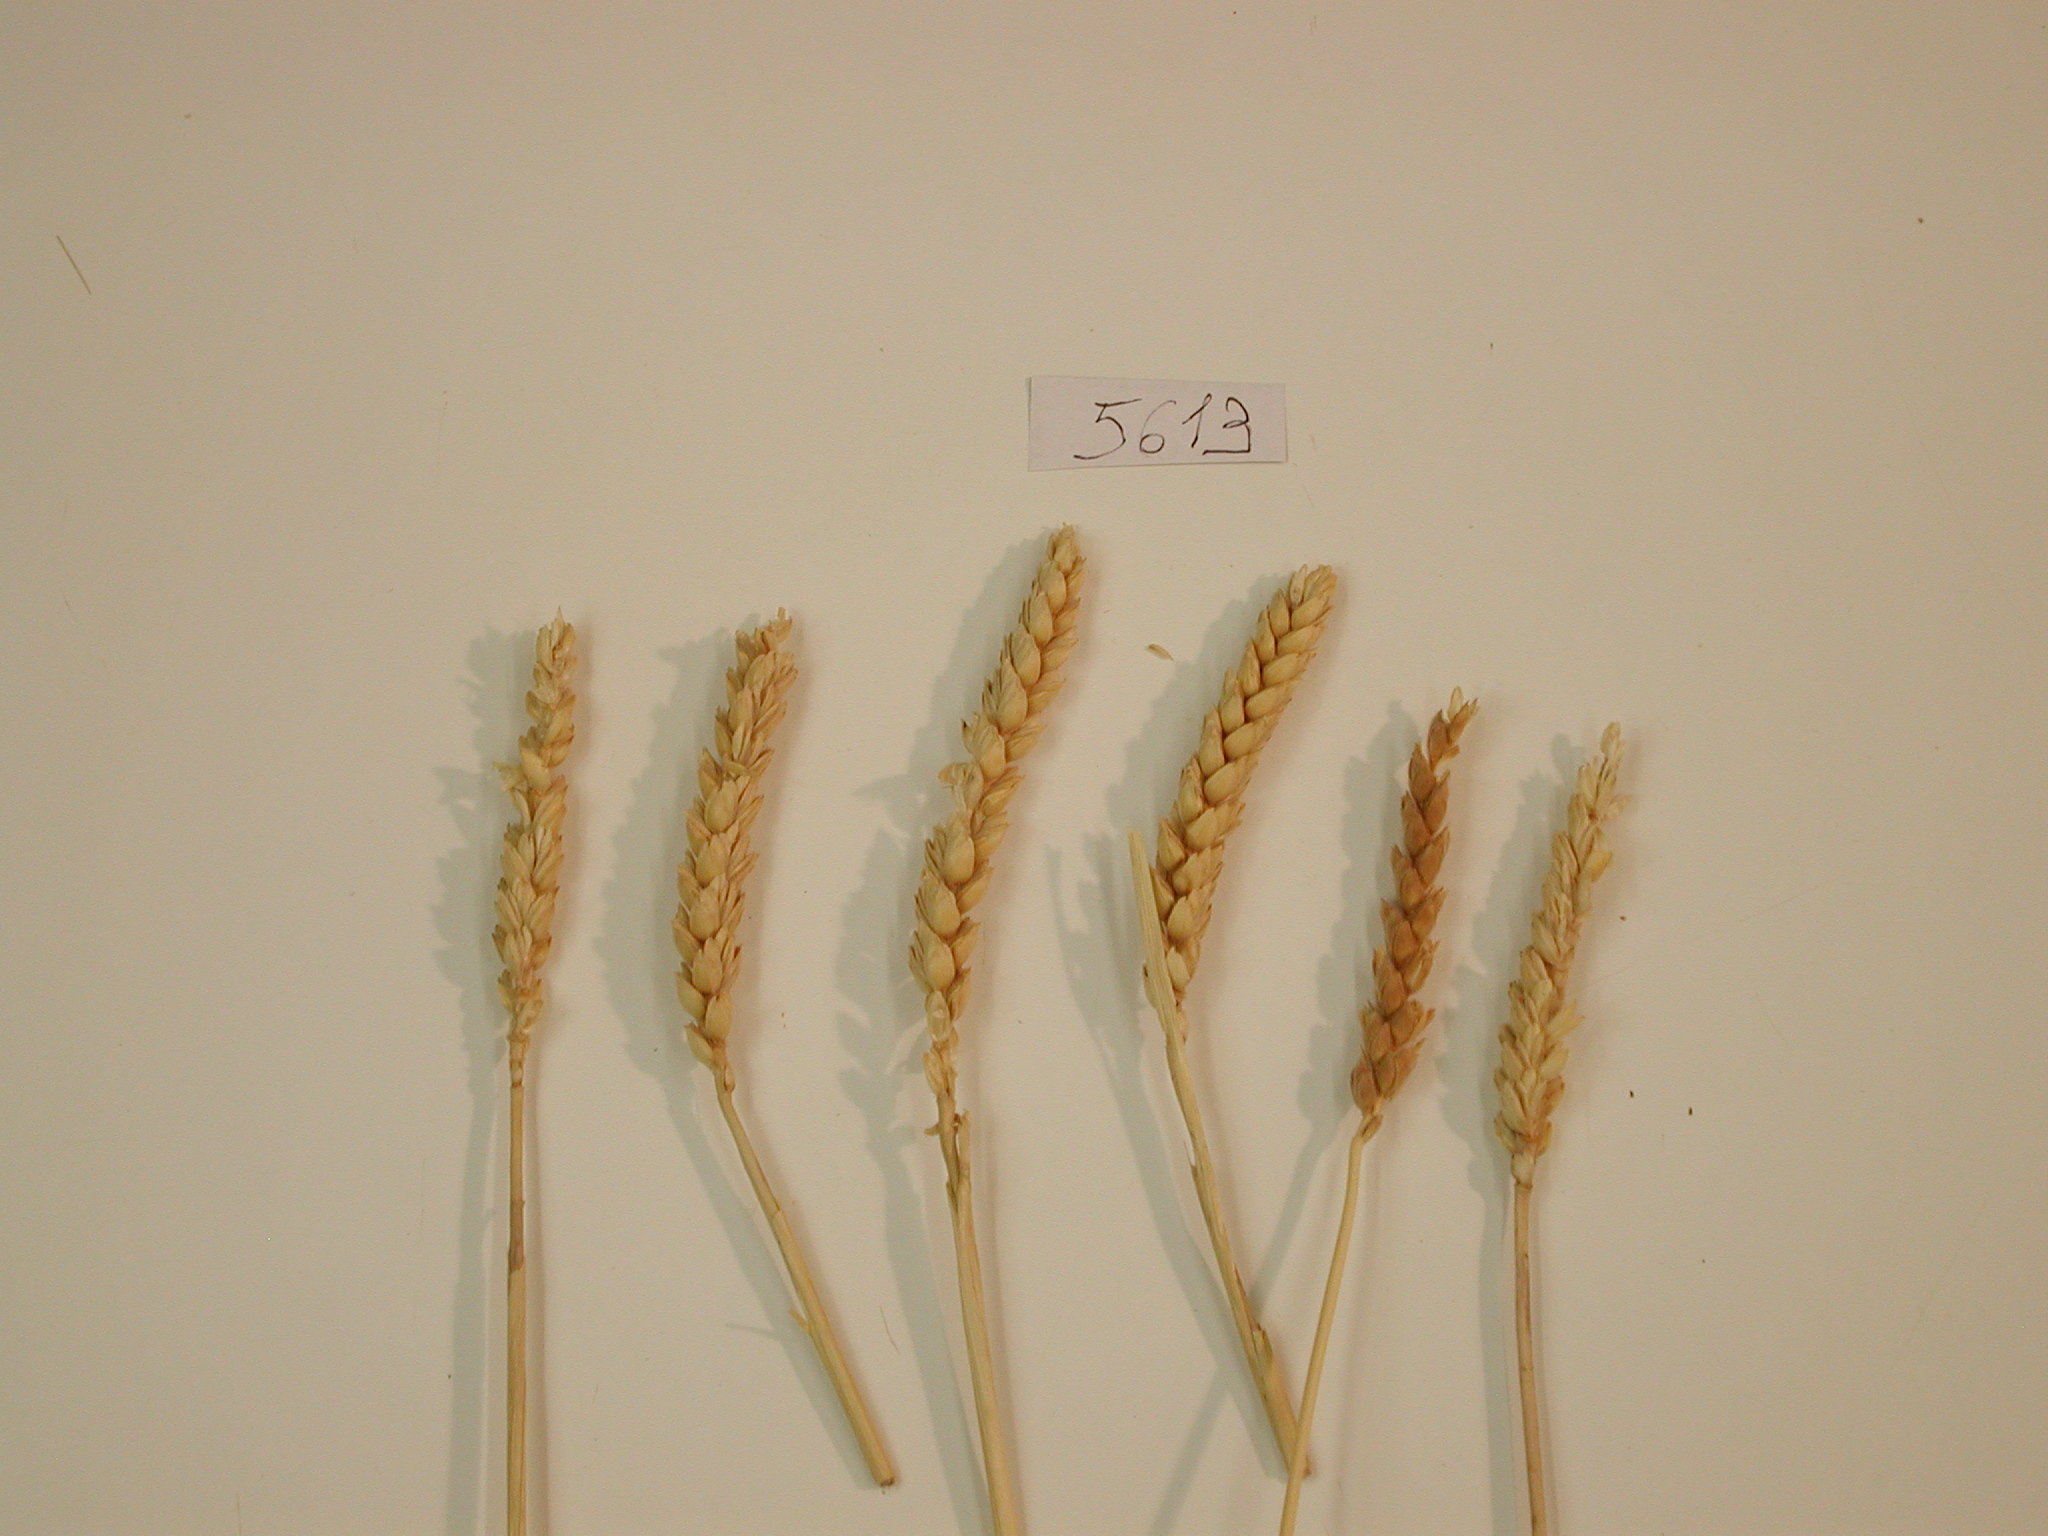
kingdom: Plantae
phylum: Tracheophyta
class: Liliopsida
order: Poales
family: Poaceae
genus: Triticum
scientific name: Triticum
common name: Wheat
